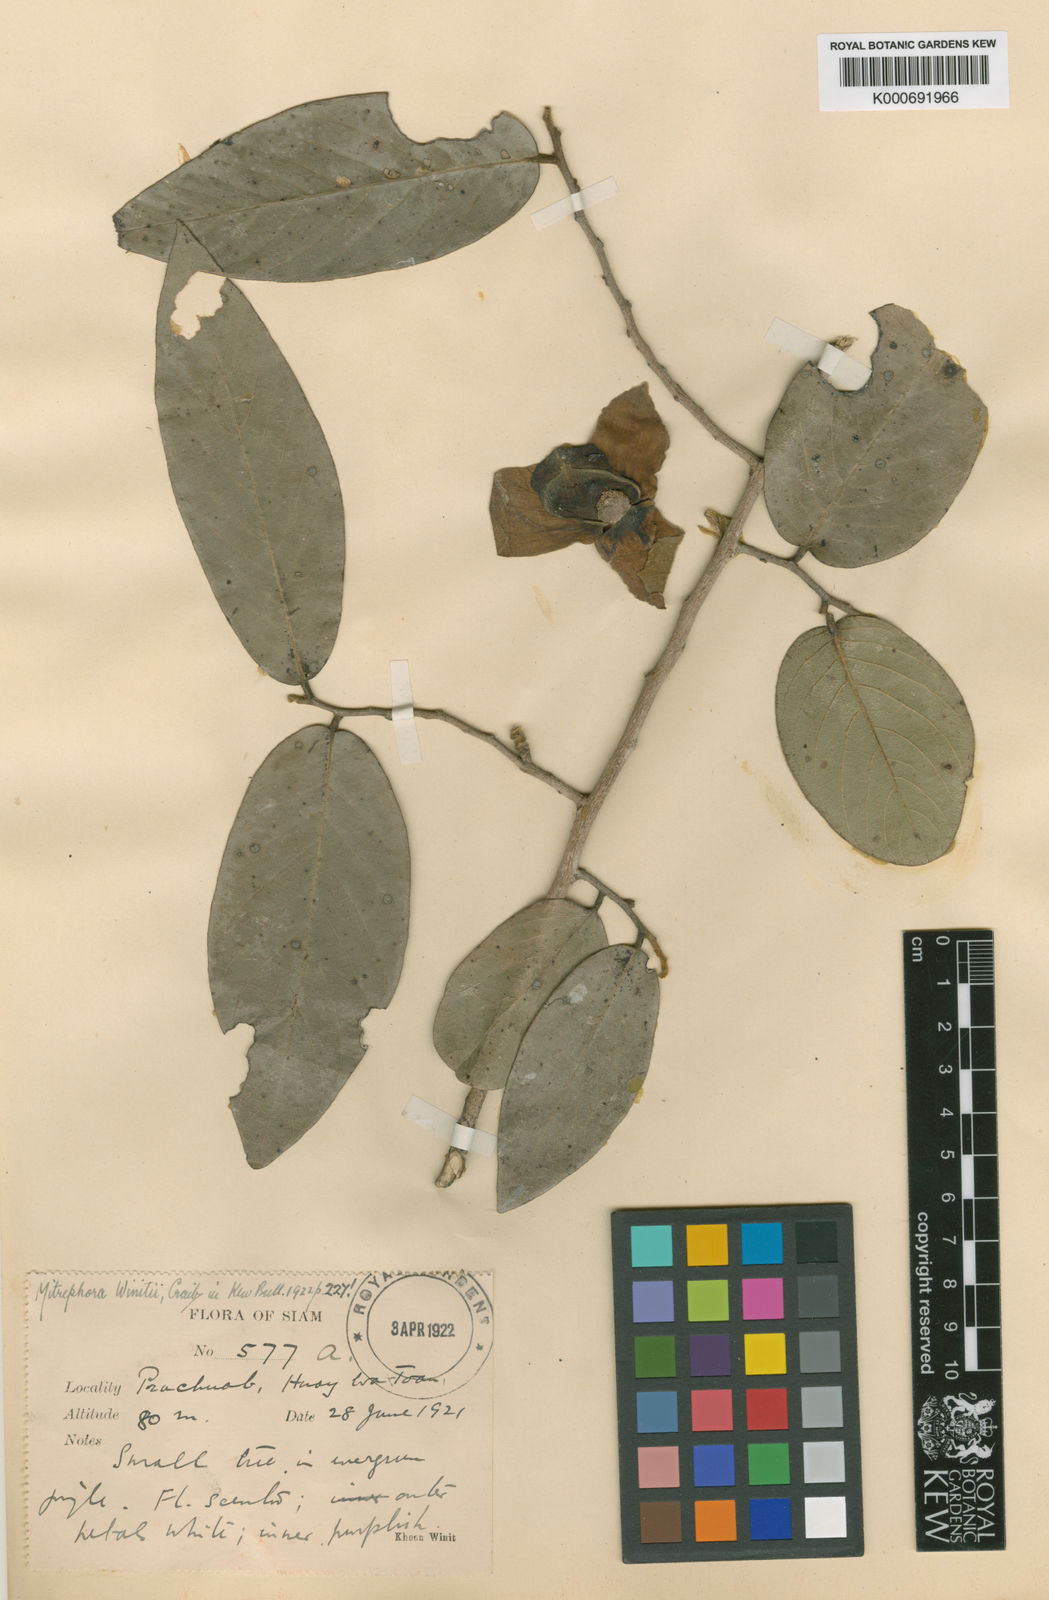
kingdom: Plantae
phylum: Tracheophyta
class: Magnoliopsida
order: Magnoliales
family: Annonaceae
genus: Mitrephora
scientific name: Mitrephora winitii
